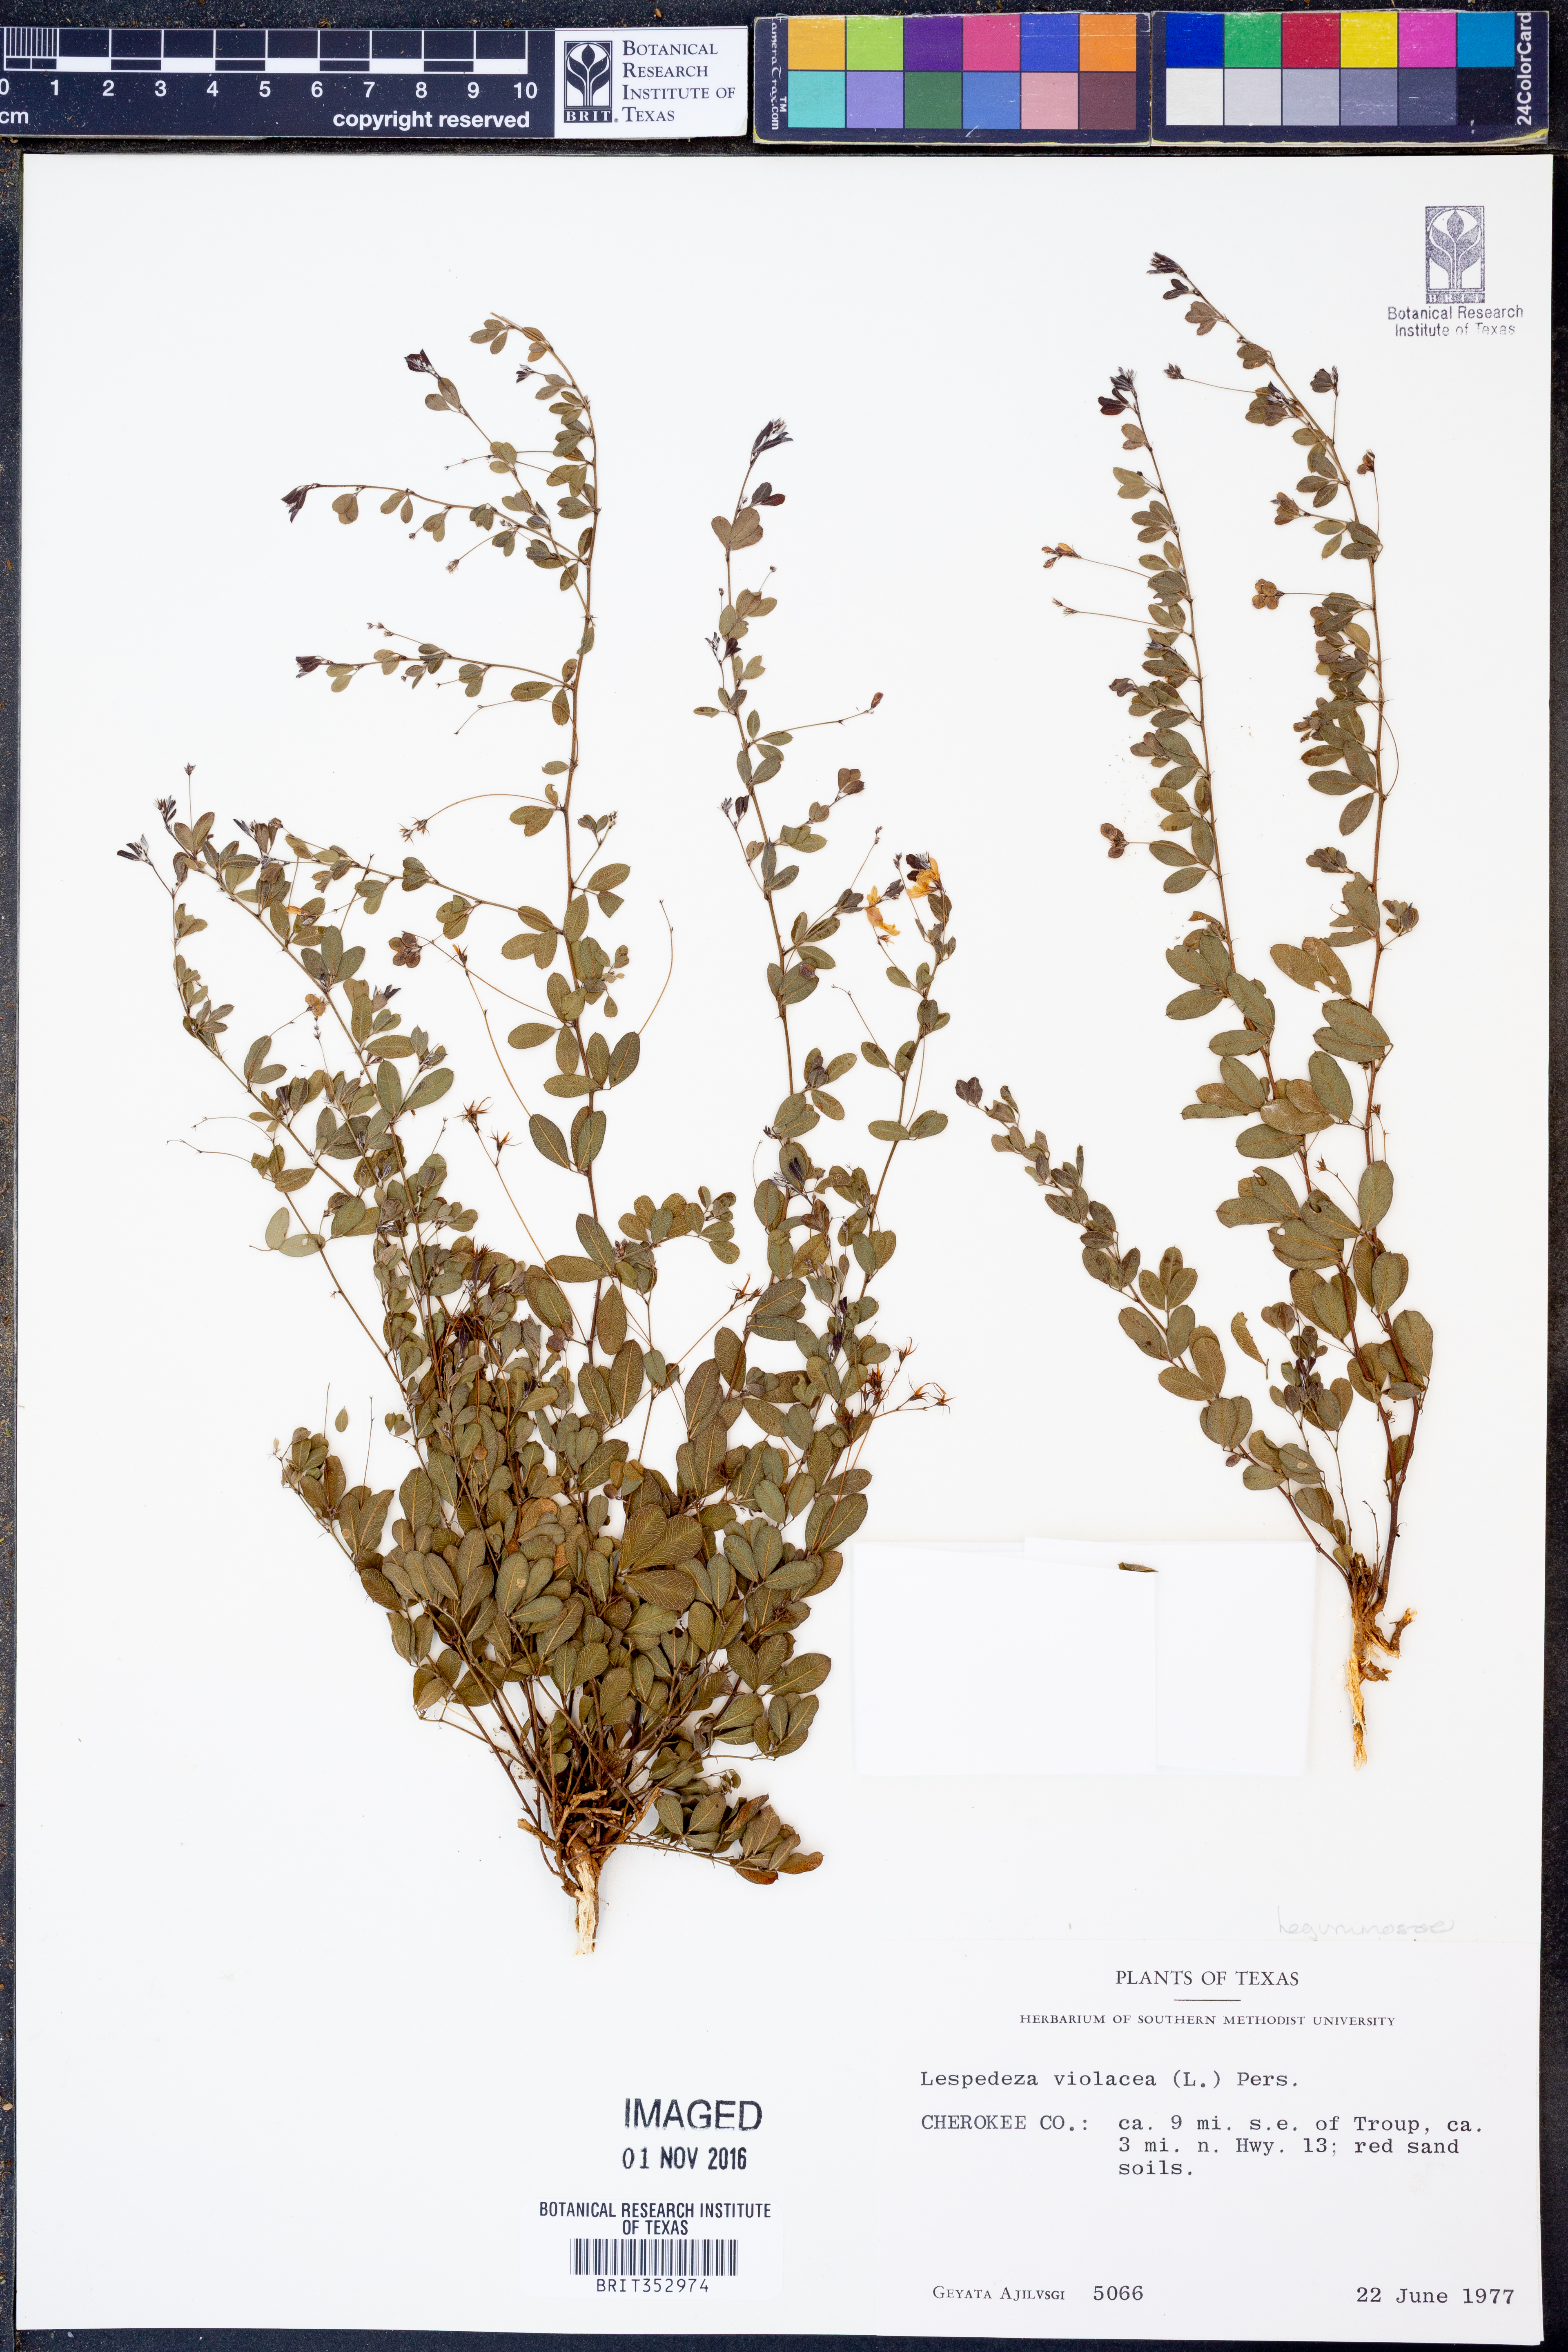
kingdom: Plantae
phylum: Tracheophyta
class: Magnoliopsida
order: Fabales
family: Fabaceae
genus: Lespedeza
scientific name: Lespedeza violacea
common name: Wand bush-clover
